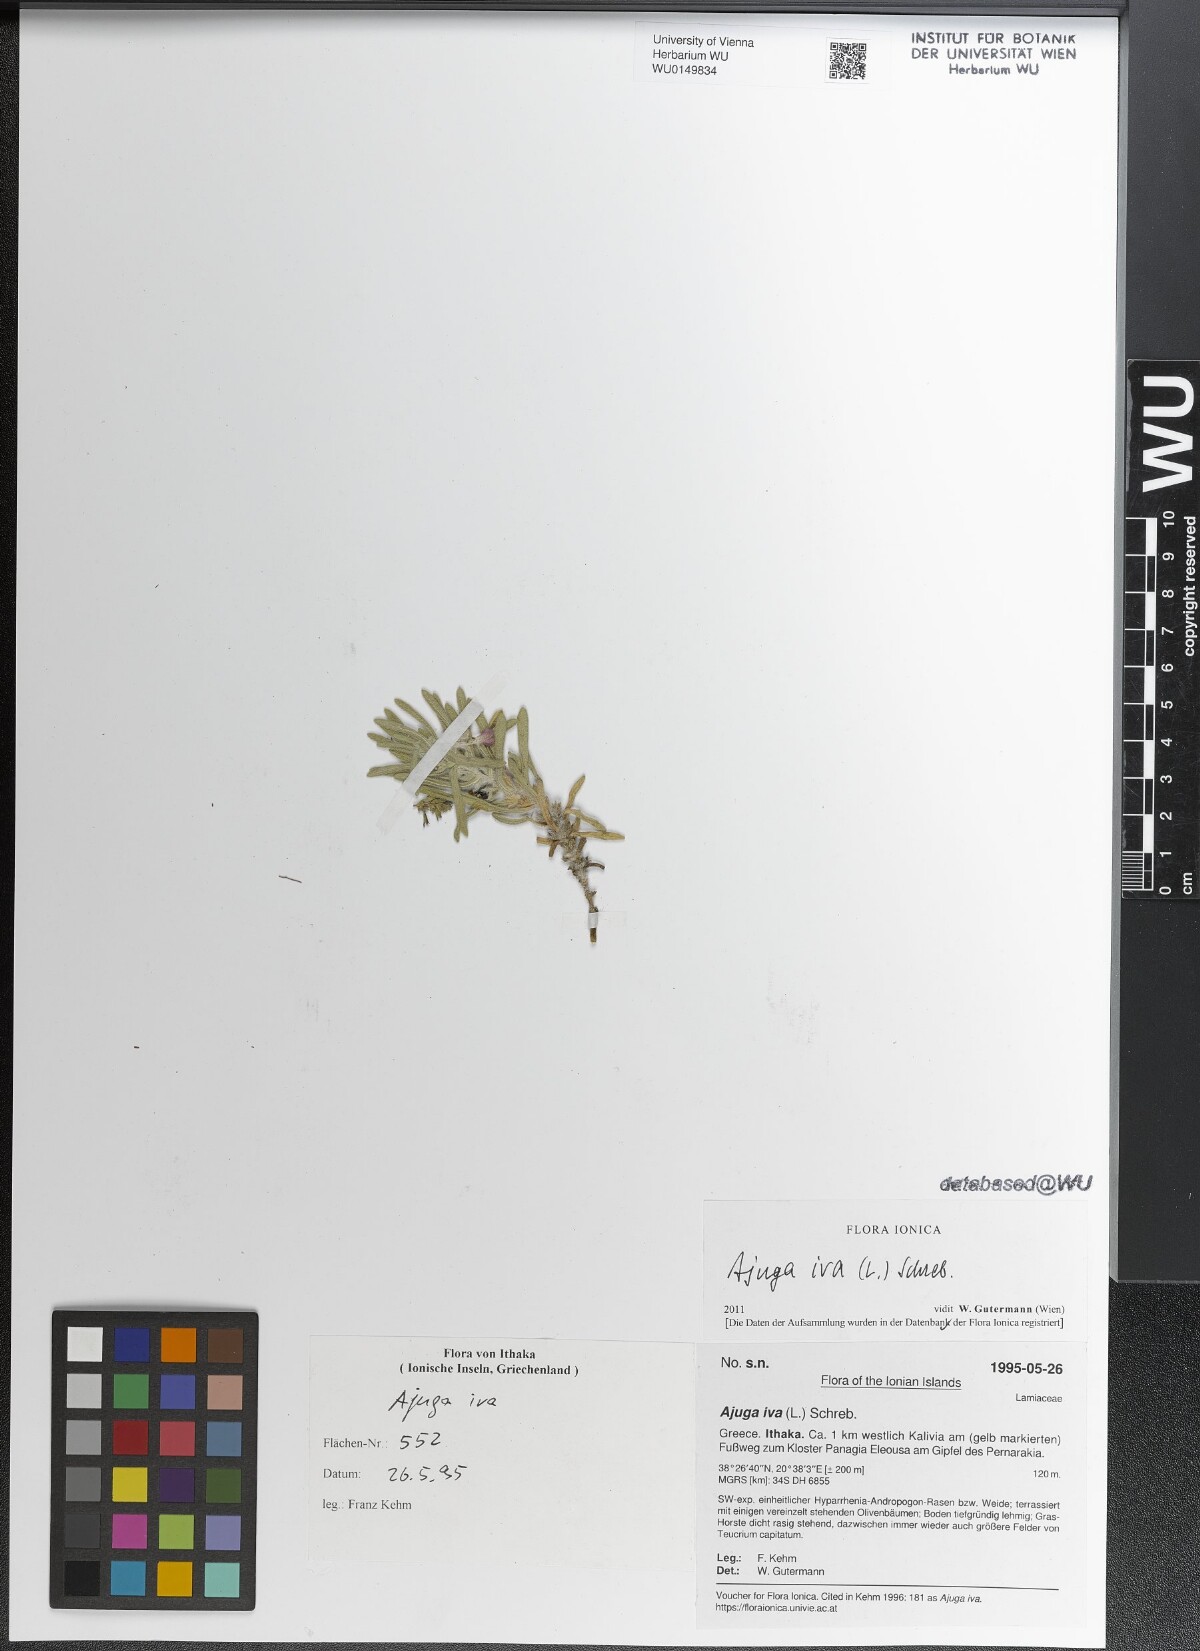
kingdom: Plantae
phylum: Tracheophyta
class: Magnoliopsida
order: Lamiales
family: Lamiaceae
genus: Ajuga
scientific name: Ajuga iva
